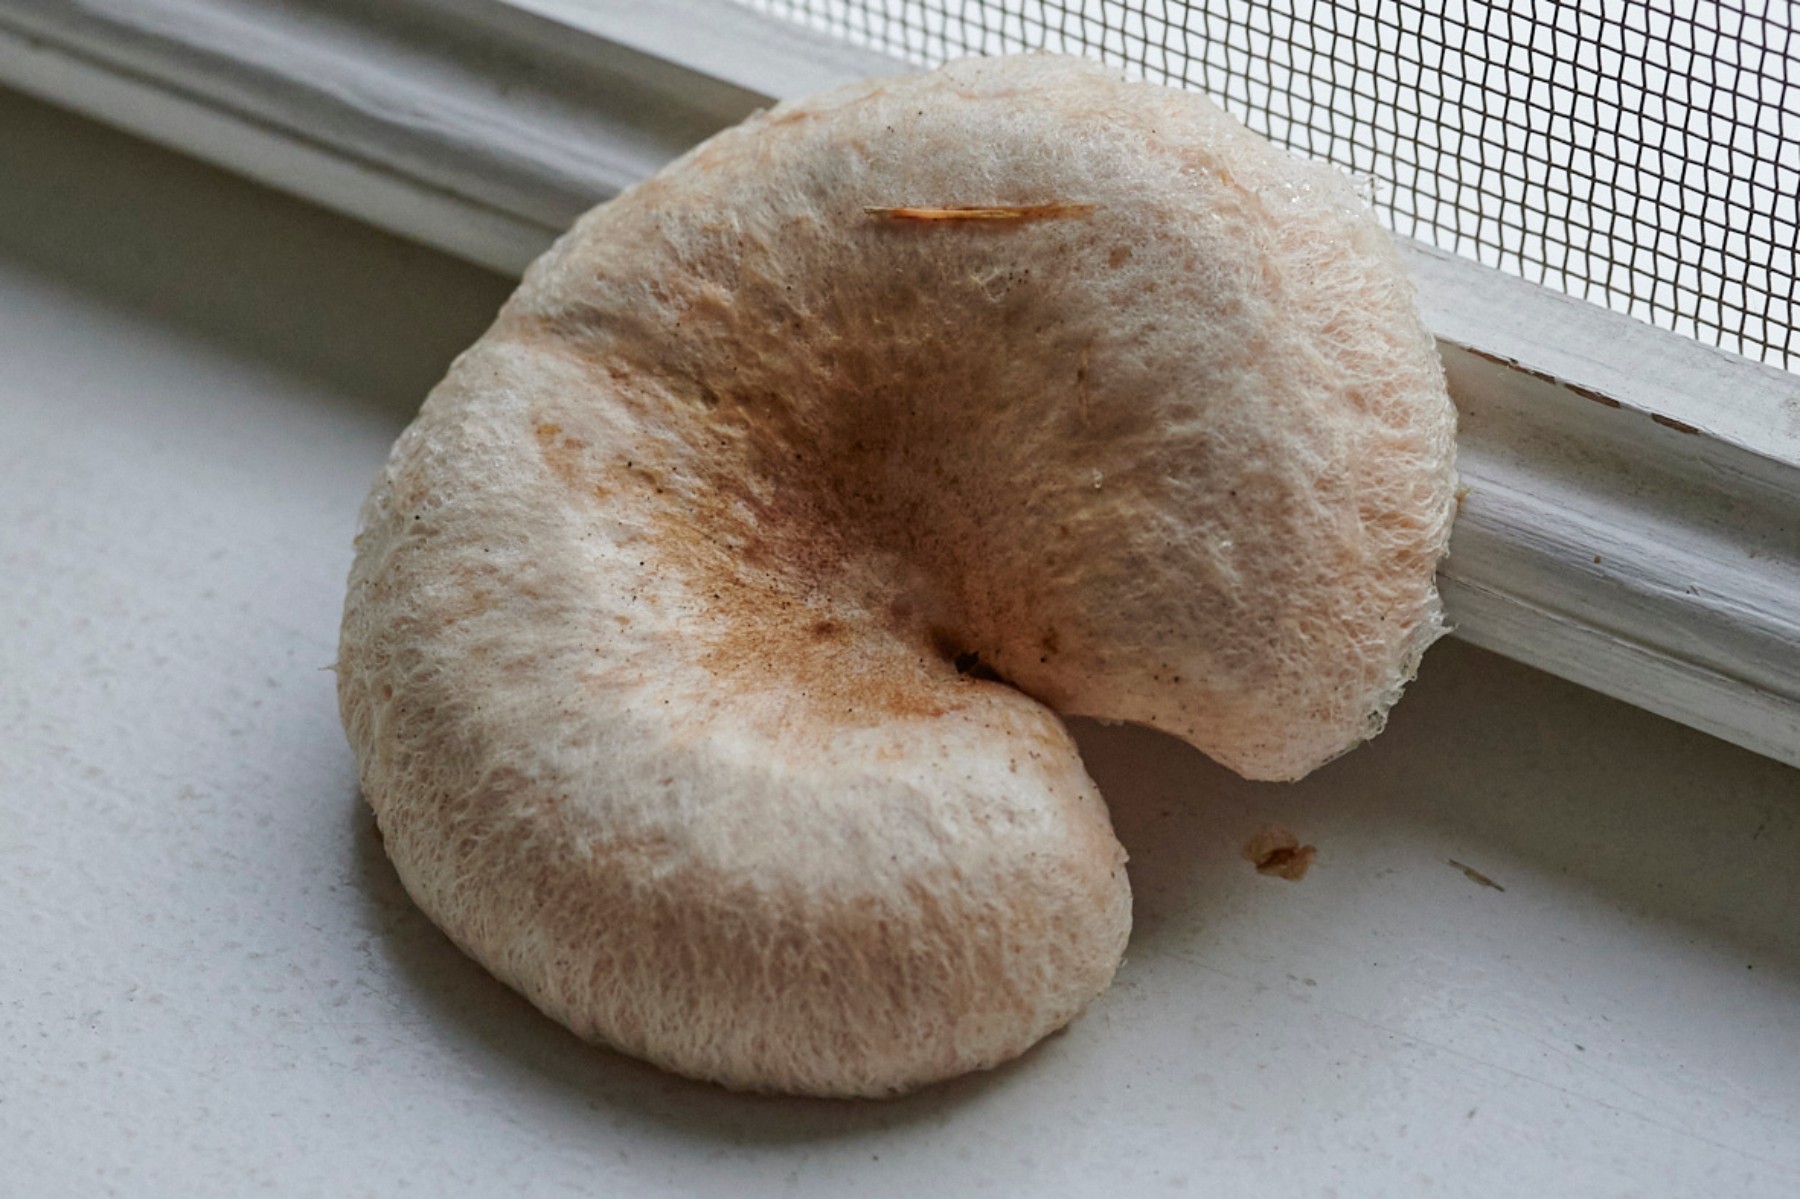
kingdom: Fungi
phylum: Basidiomycota
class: Agaricomycetes
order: Russulales
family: Russulaceae
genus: Lactarius
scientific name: Lactarius pubescens
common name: dunet mælkehat
